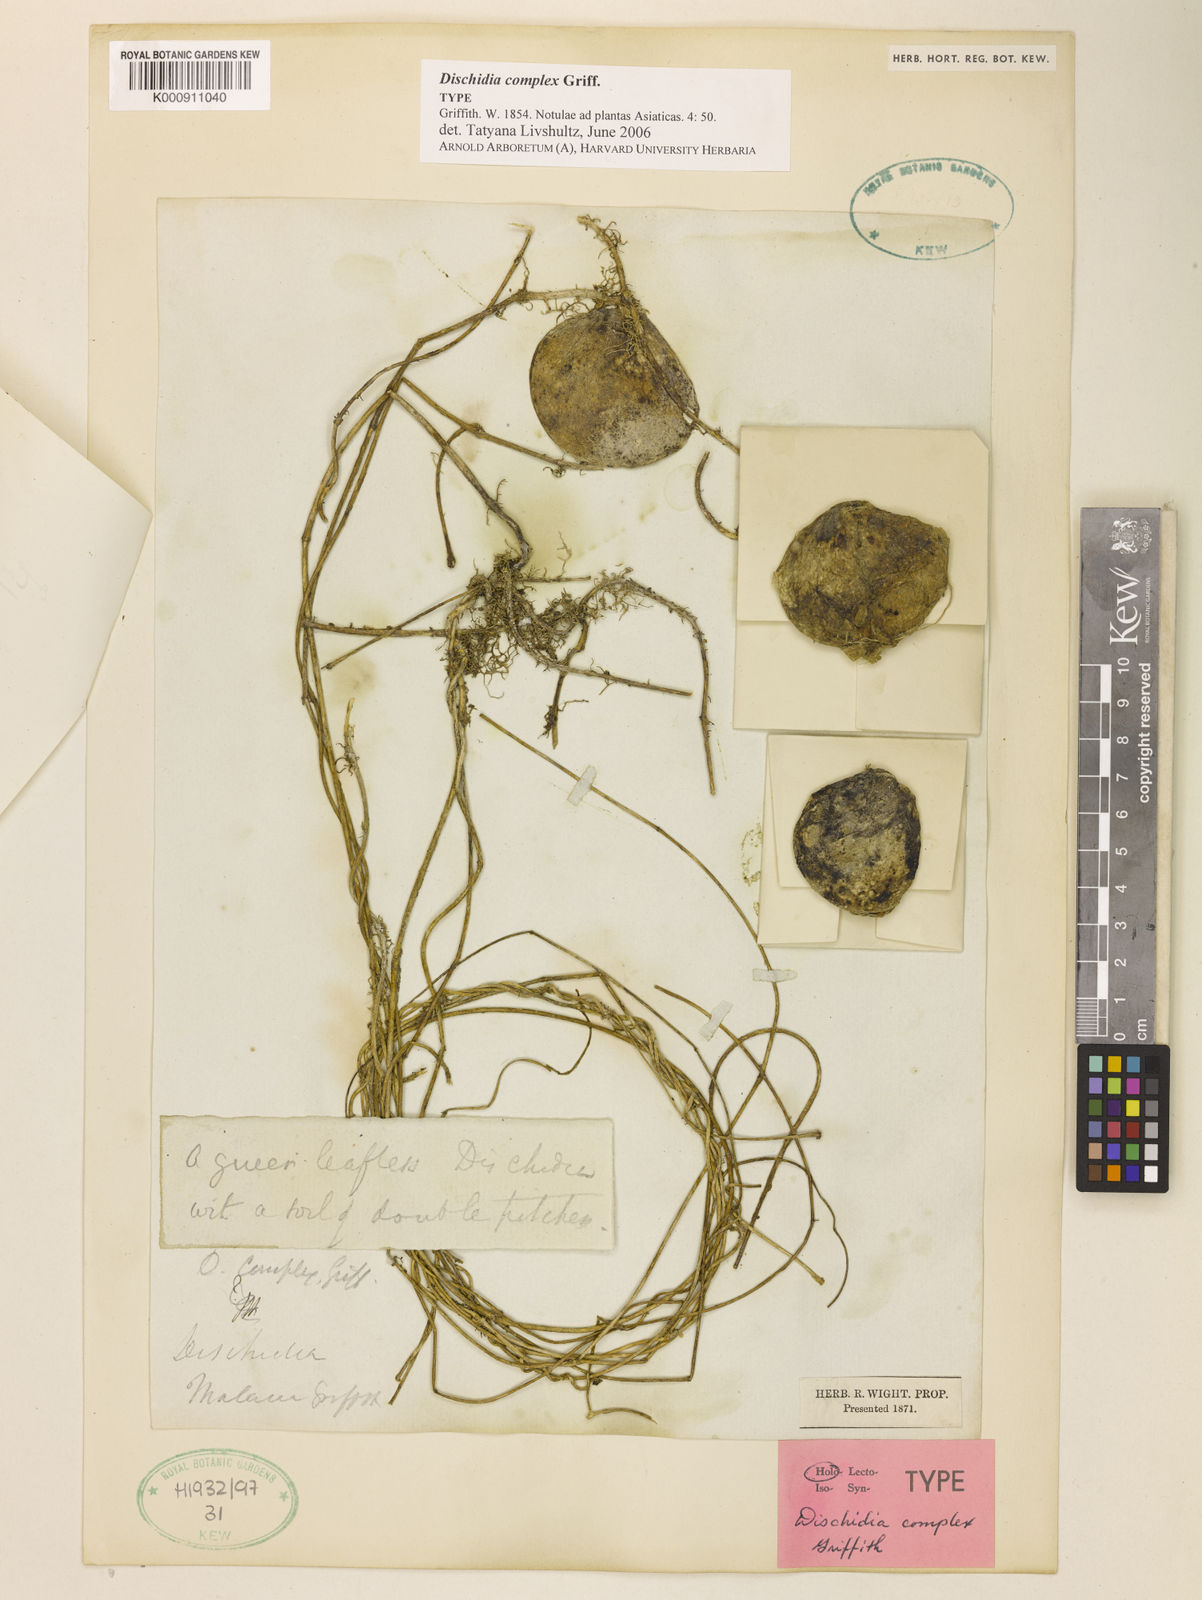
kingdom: Plantae
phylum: Tracheophyta
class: Magnoliopsida
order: Gentianales
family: Apocynaceae
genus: Dischidia
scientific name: Dischidia complex
